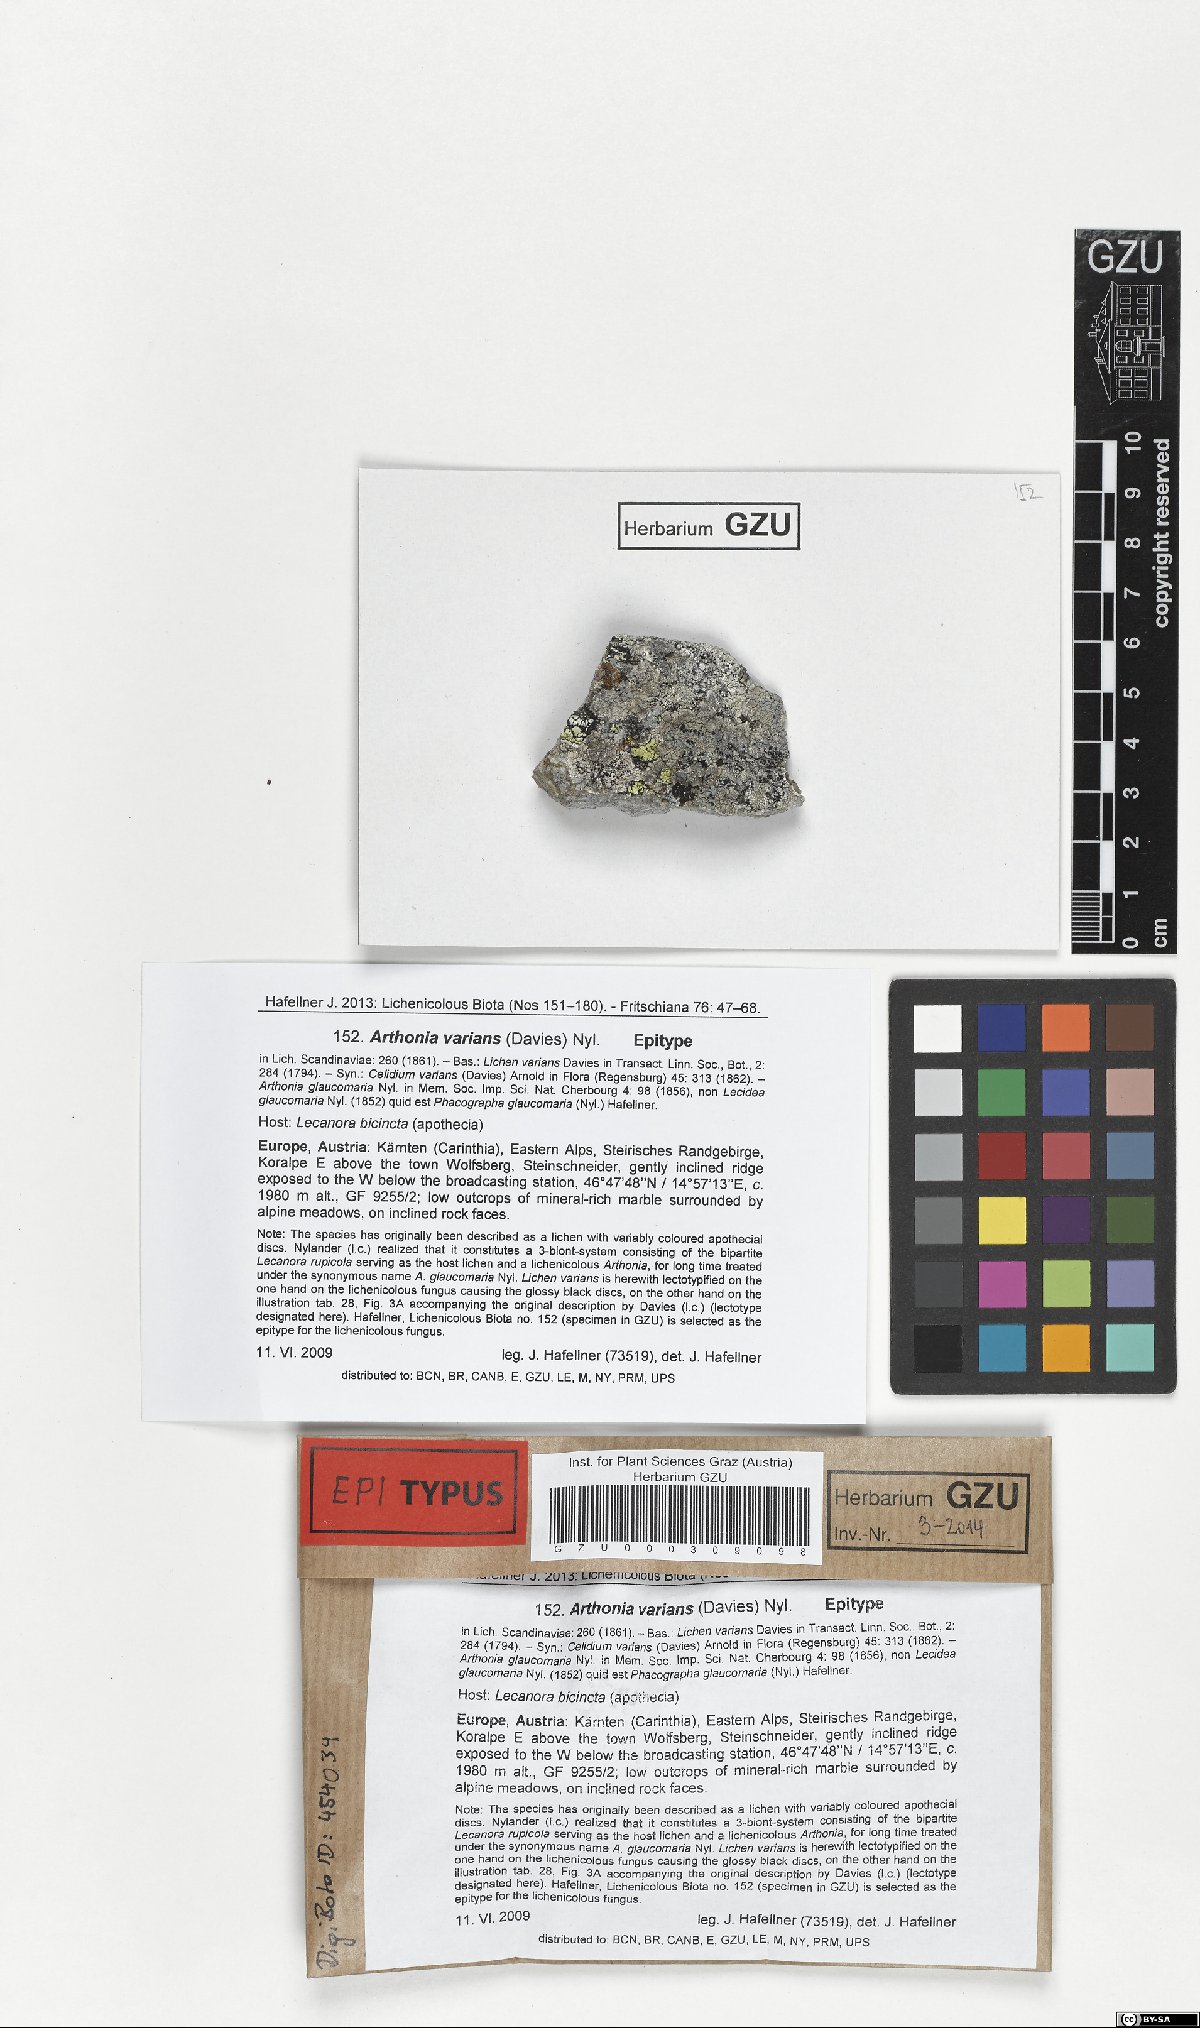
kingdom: Fungi
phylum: Ascomycota
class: Arthoniomycetes
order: Arthoniales
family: Arthoniaceae
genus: Arthonia
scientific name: Arthonia varians
